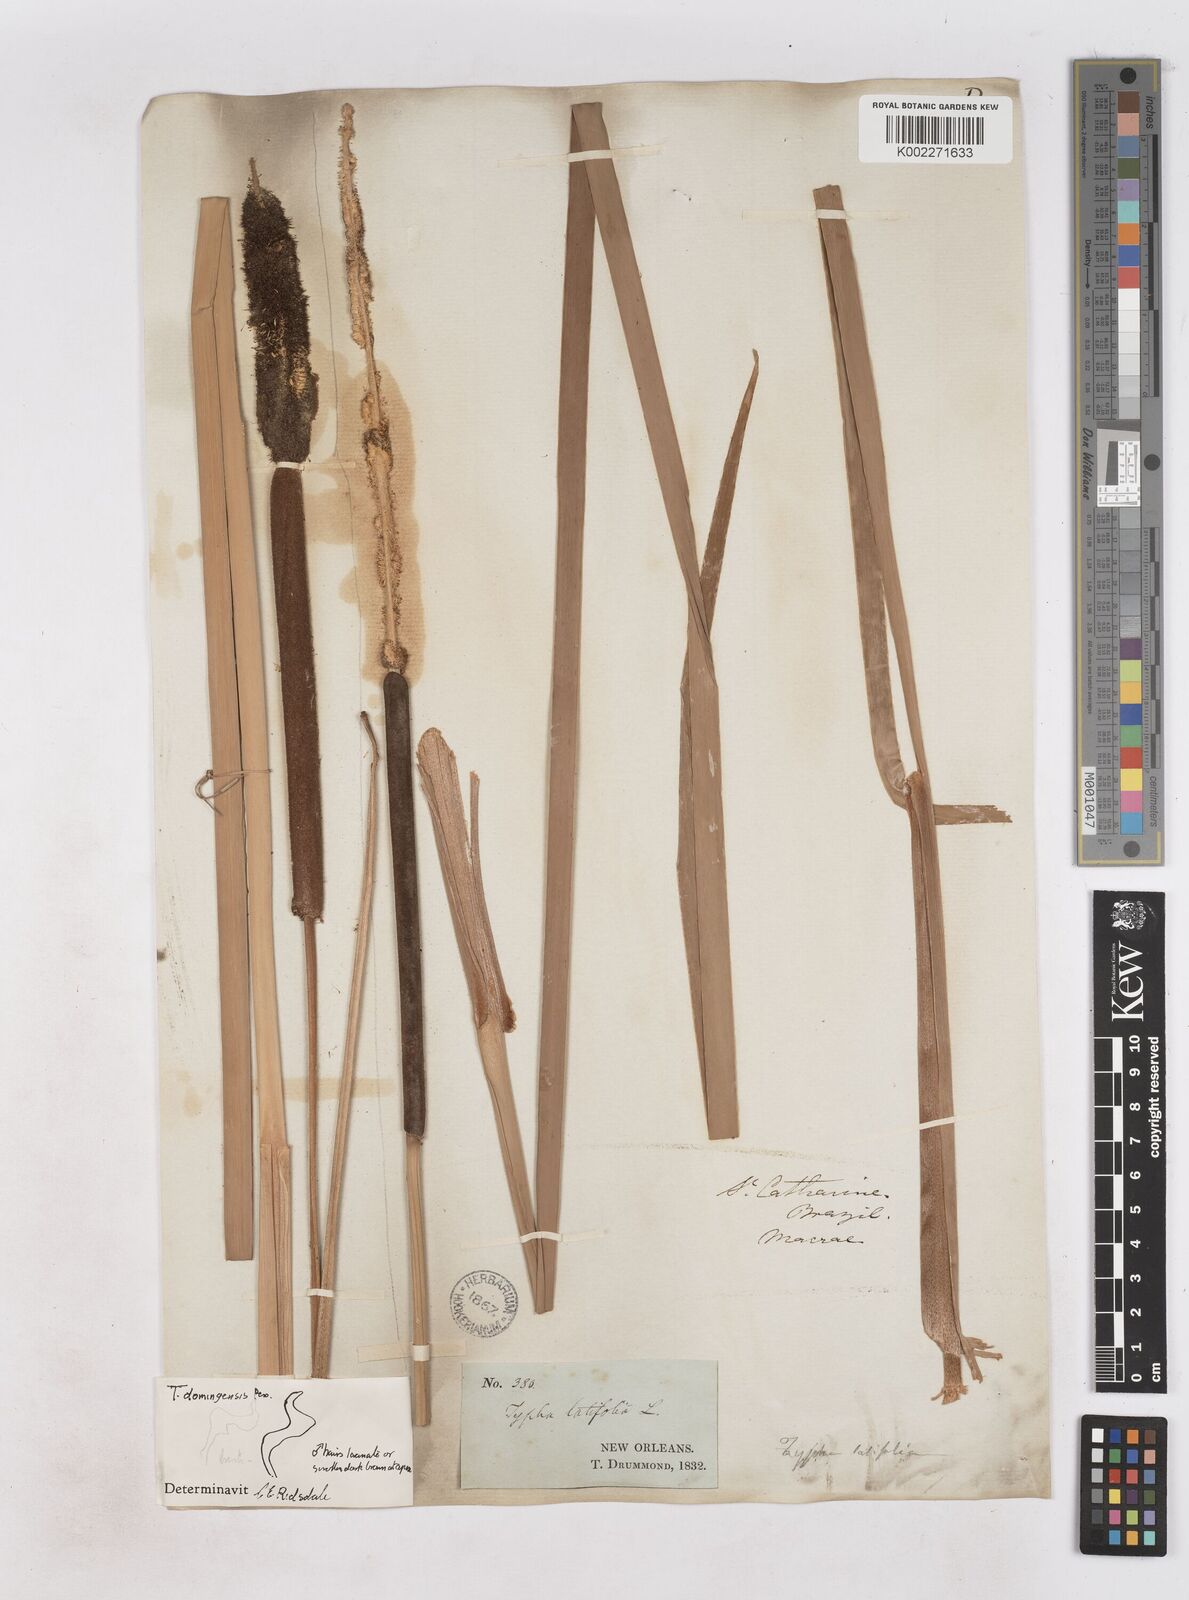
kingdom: Plantae
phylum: Tracheophyta
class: Liliopsida
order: Poales
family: Typhaceae
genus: Typha
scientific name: Typha latifolia
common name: Broadleaf cattail
